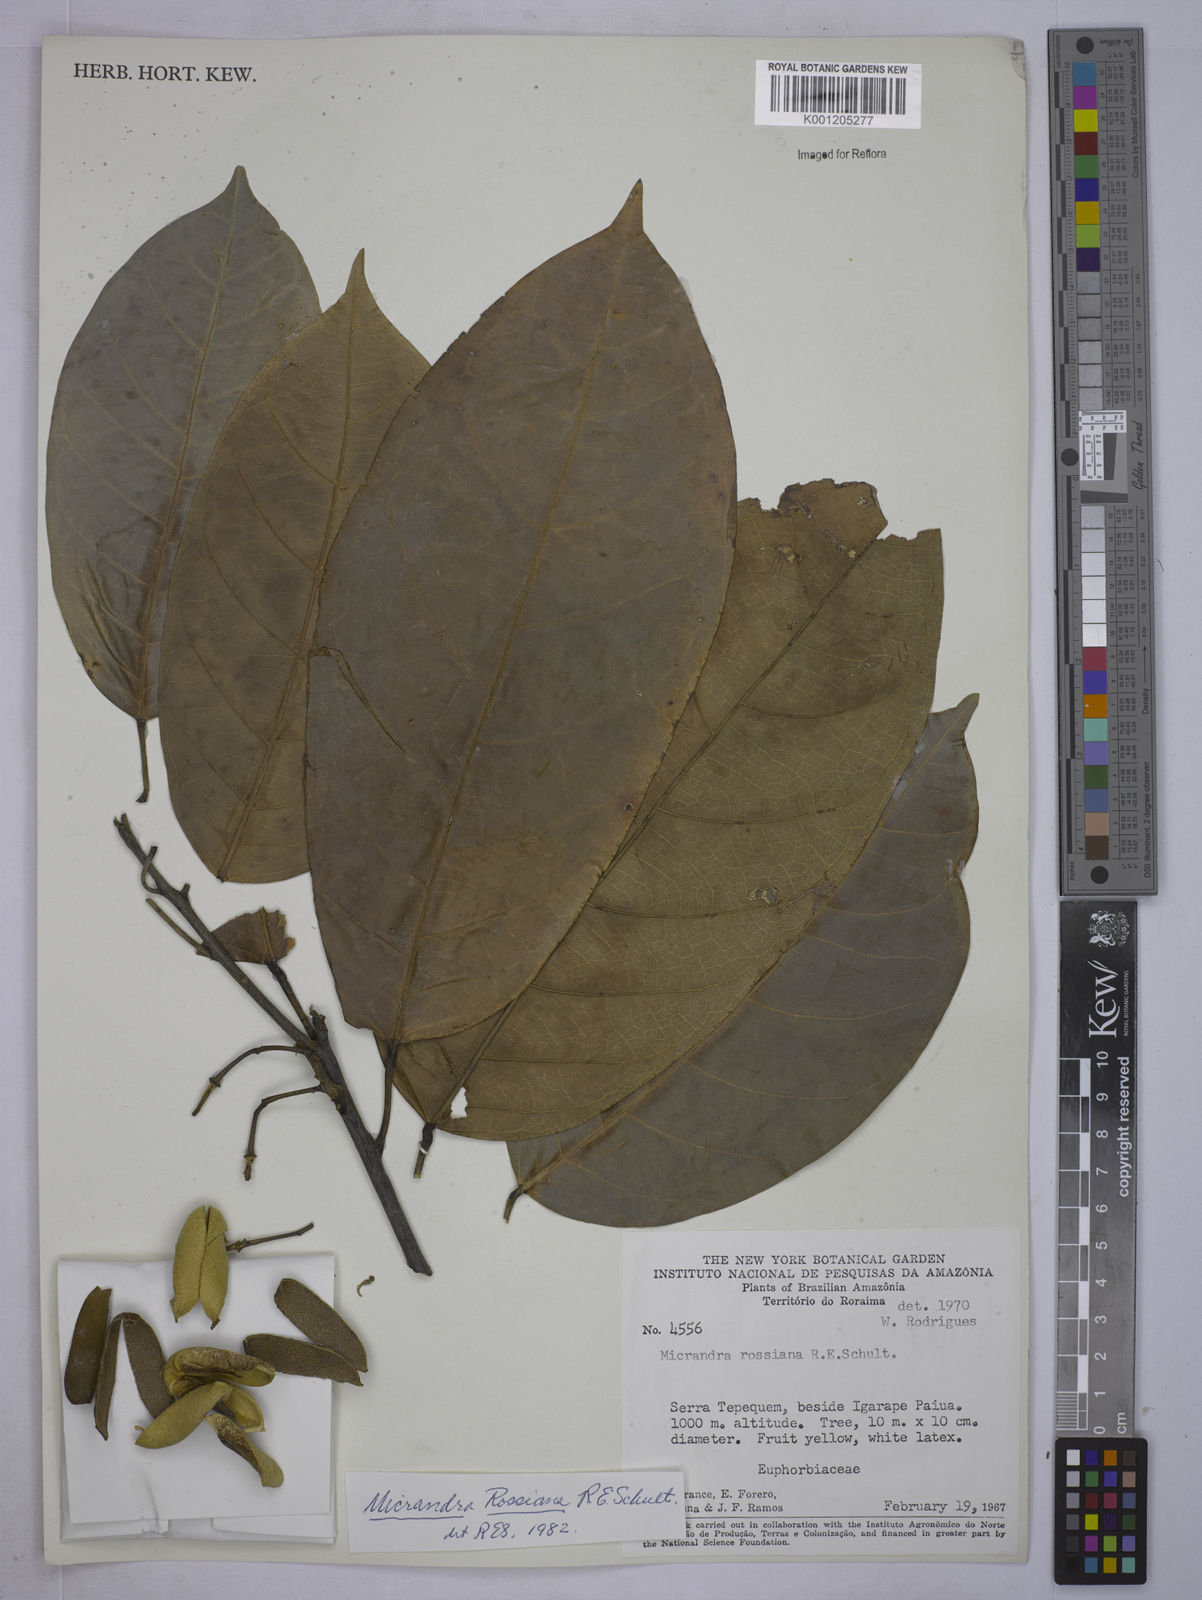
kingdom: Plantae
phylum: Tracheophyta
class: Magnoliopsida
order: Malpighiales
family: Euphorbiaceae
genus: Micrandra
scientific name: Micrandra rossiana
